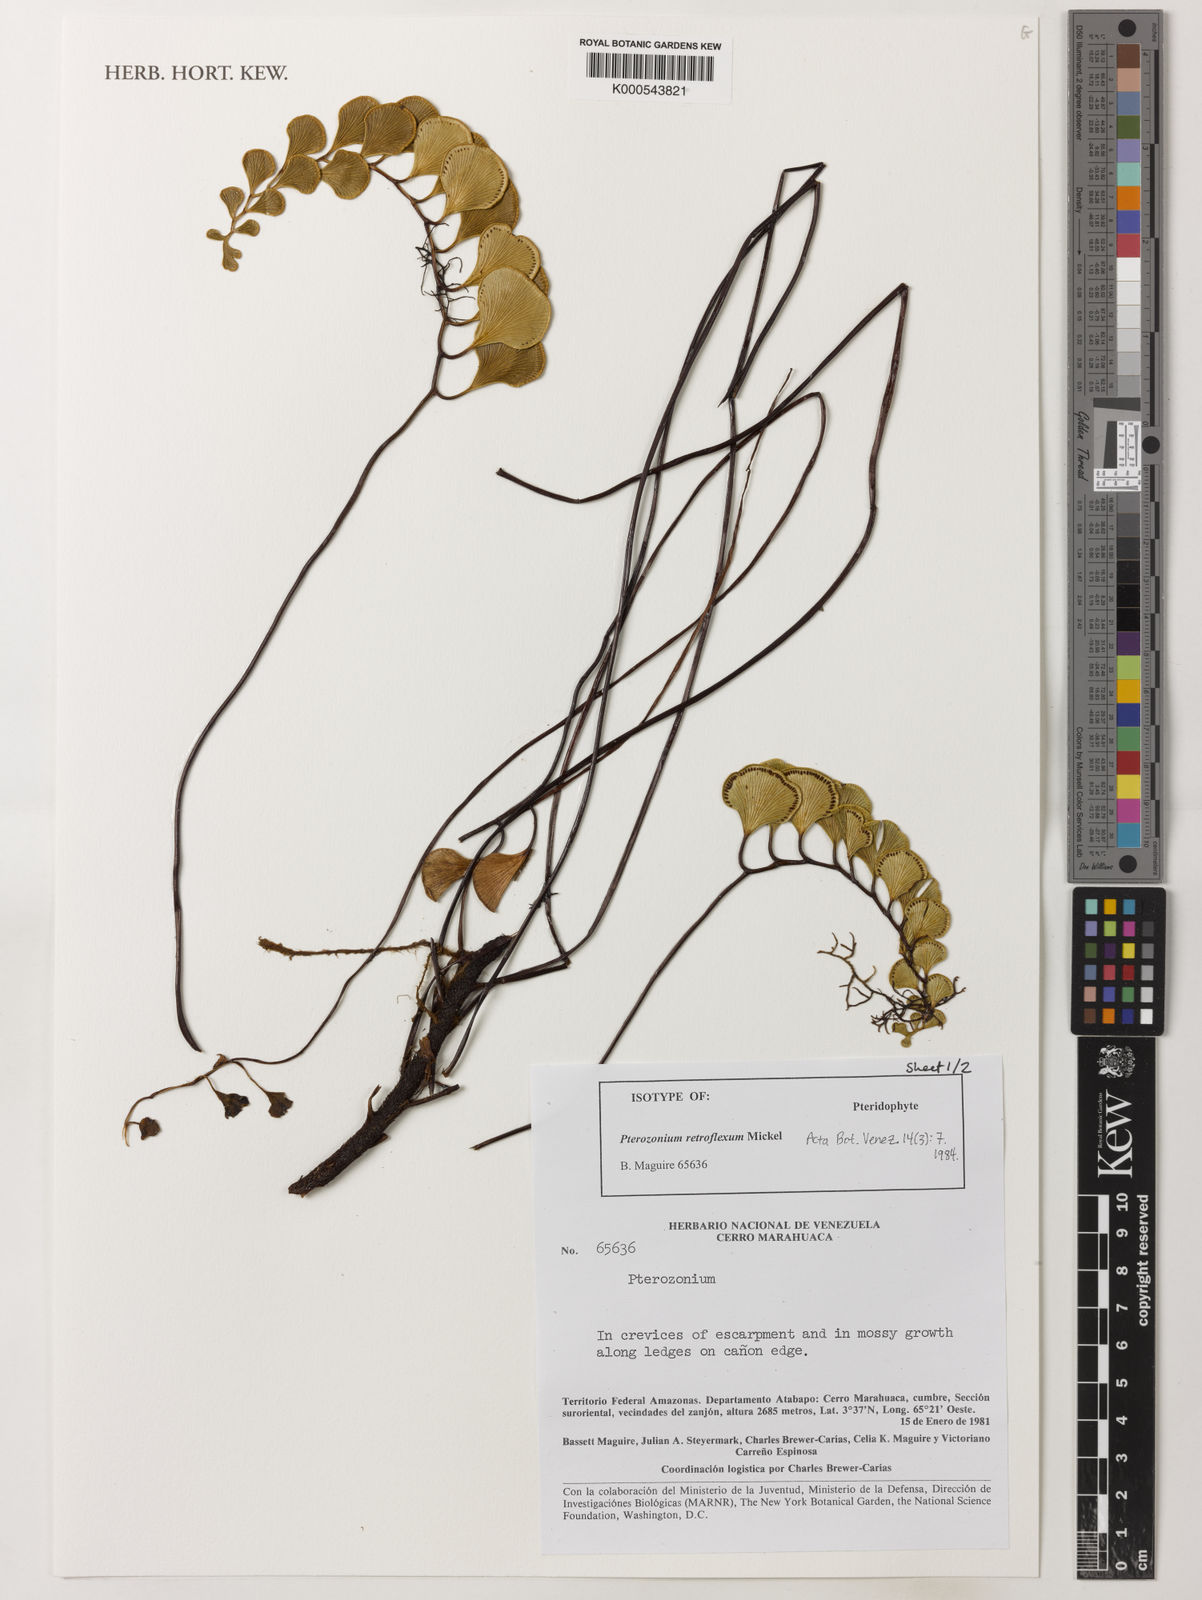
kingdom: Plantae
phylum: Tracheophyta
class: Polypodiopsida
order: Polypodiales
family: Pteridaceae
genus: Pterozonium
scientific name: Pterozonium retroflexum
